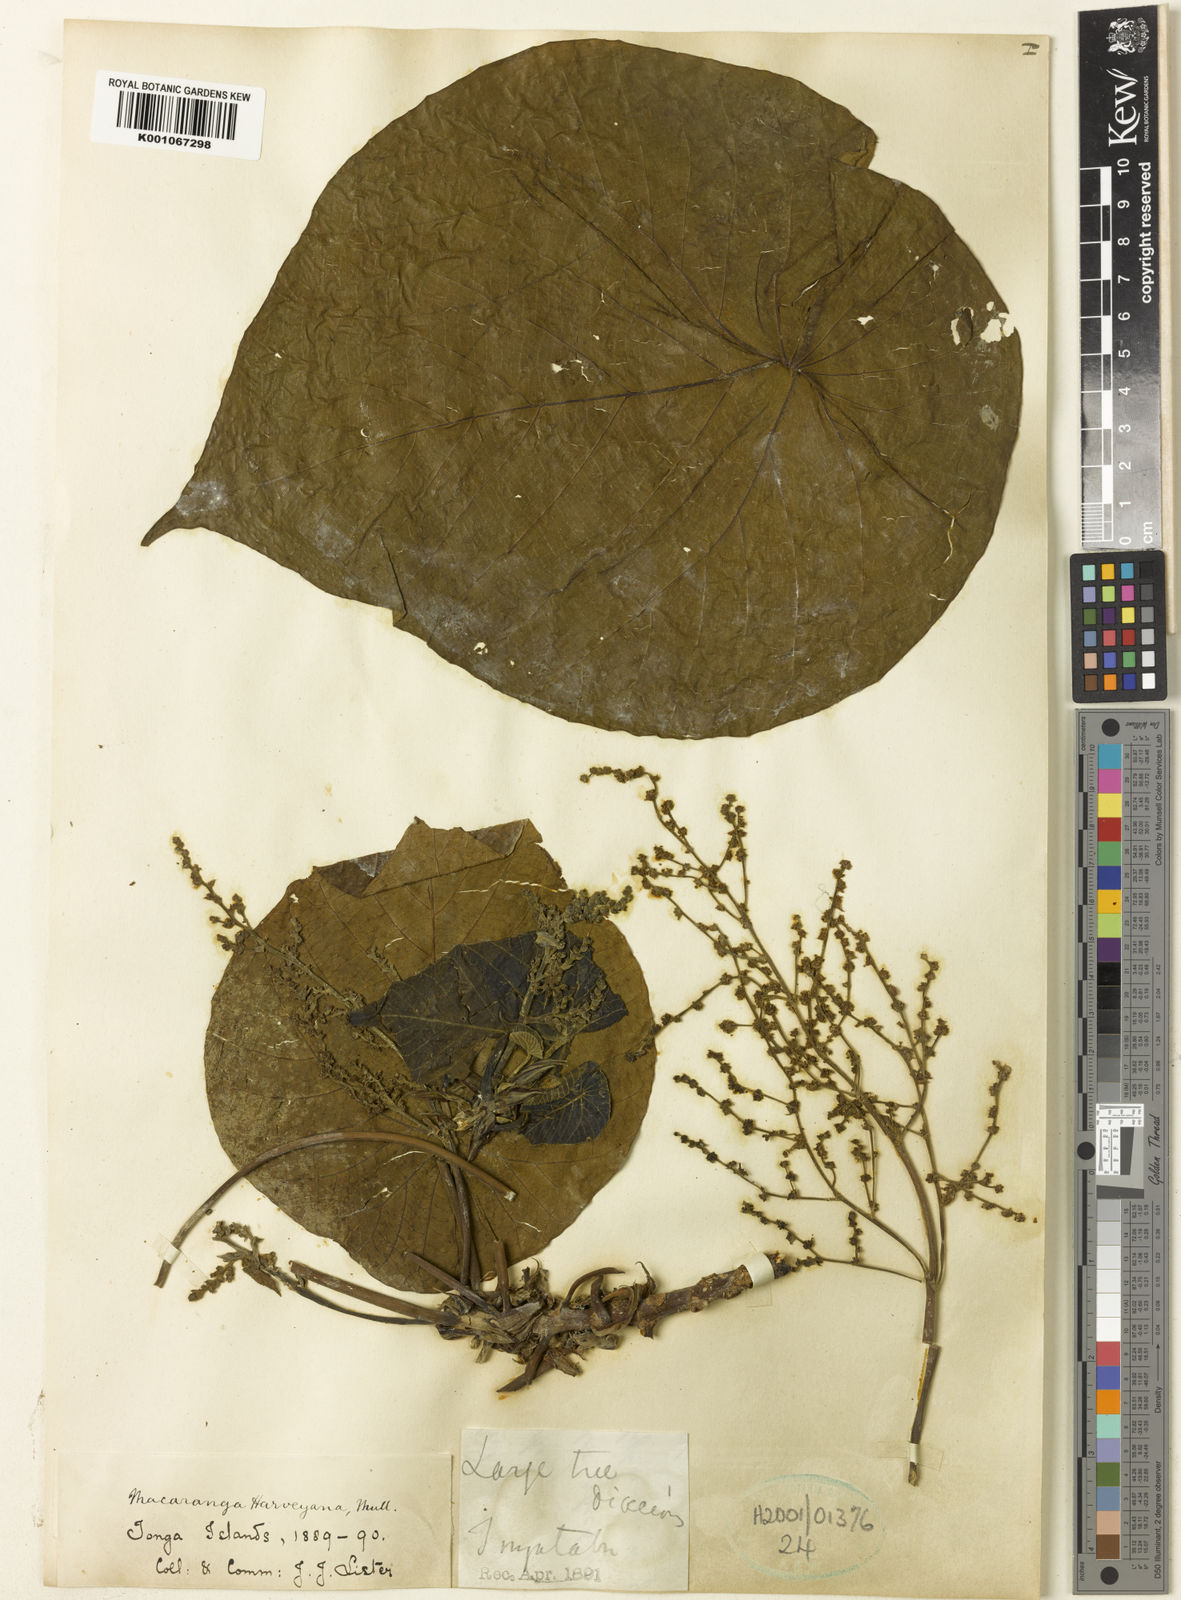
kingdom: Plantae
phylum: Tracheophyta
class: Magnoliopsida
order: Malpighiales
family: Euphorbiaceae
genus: Macaranga
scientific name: Macaranga
